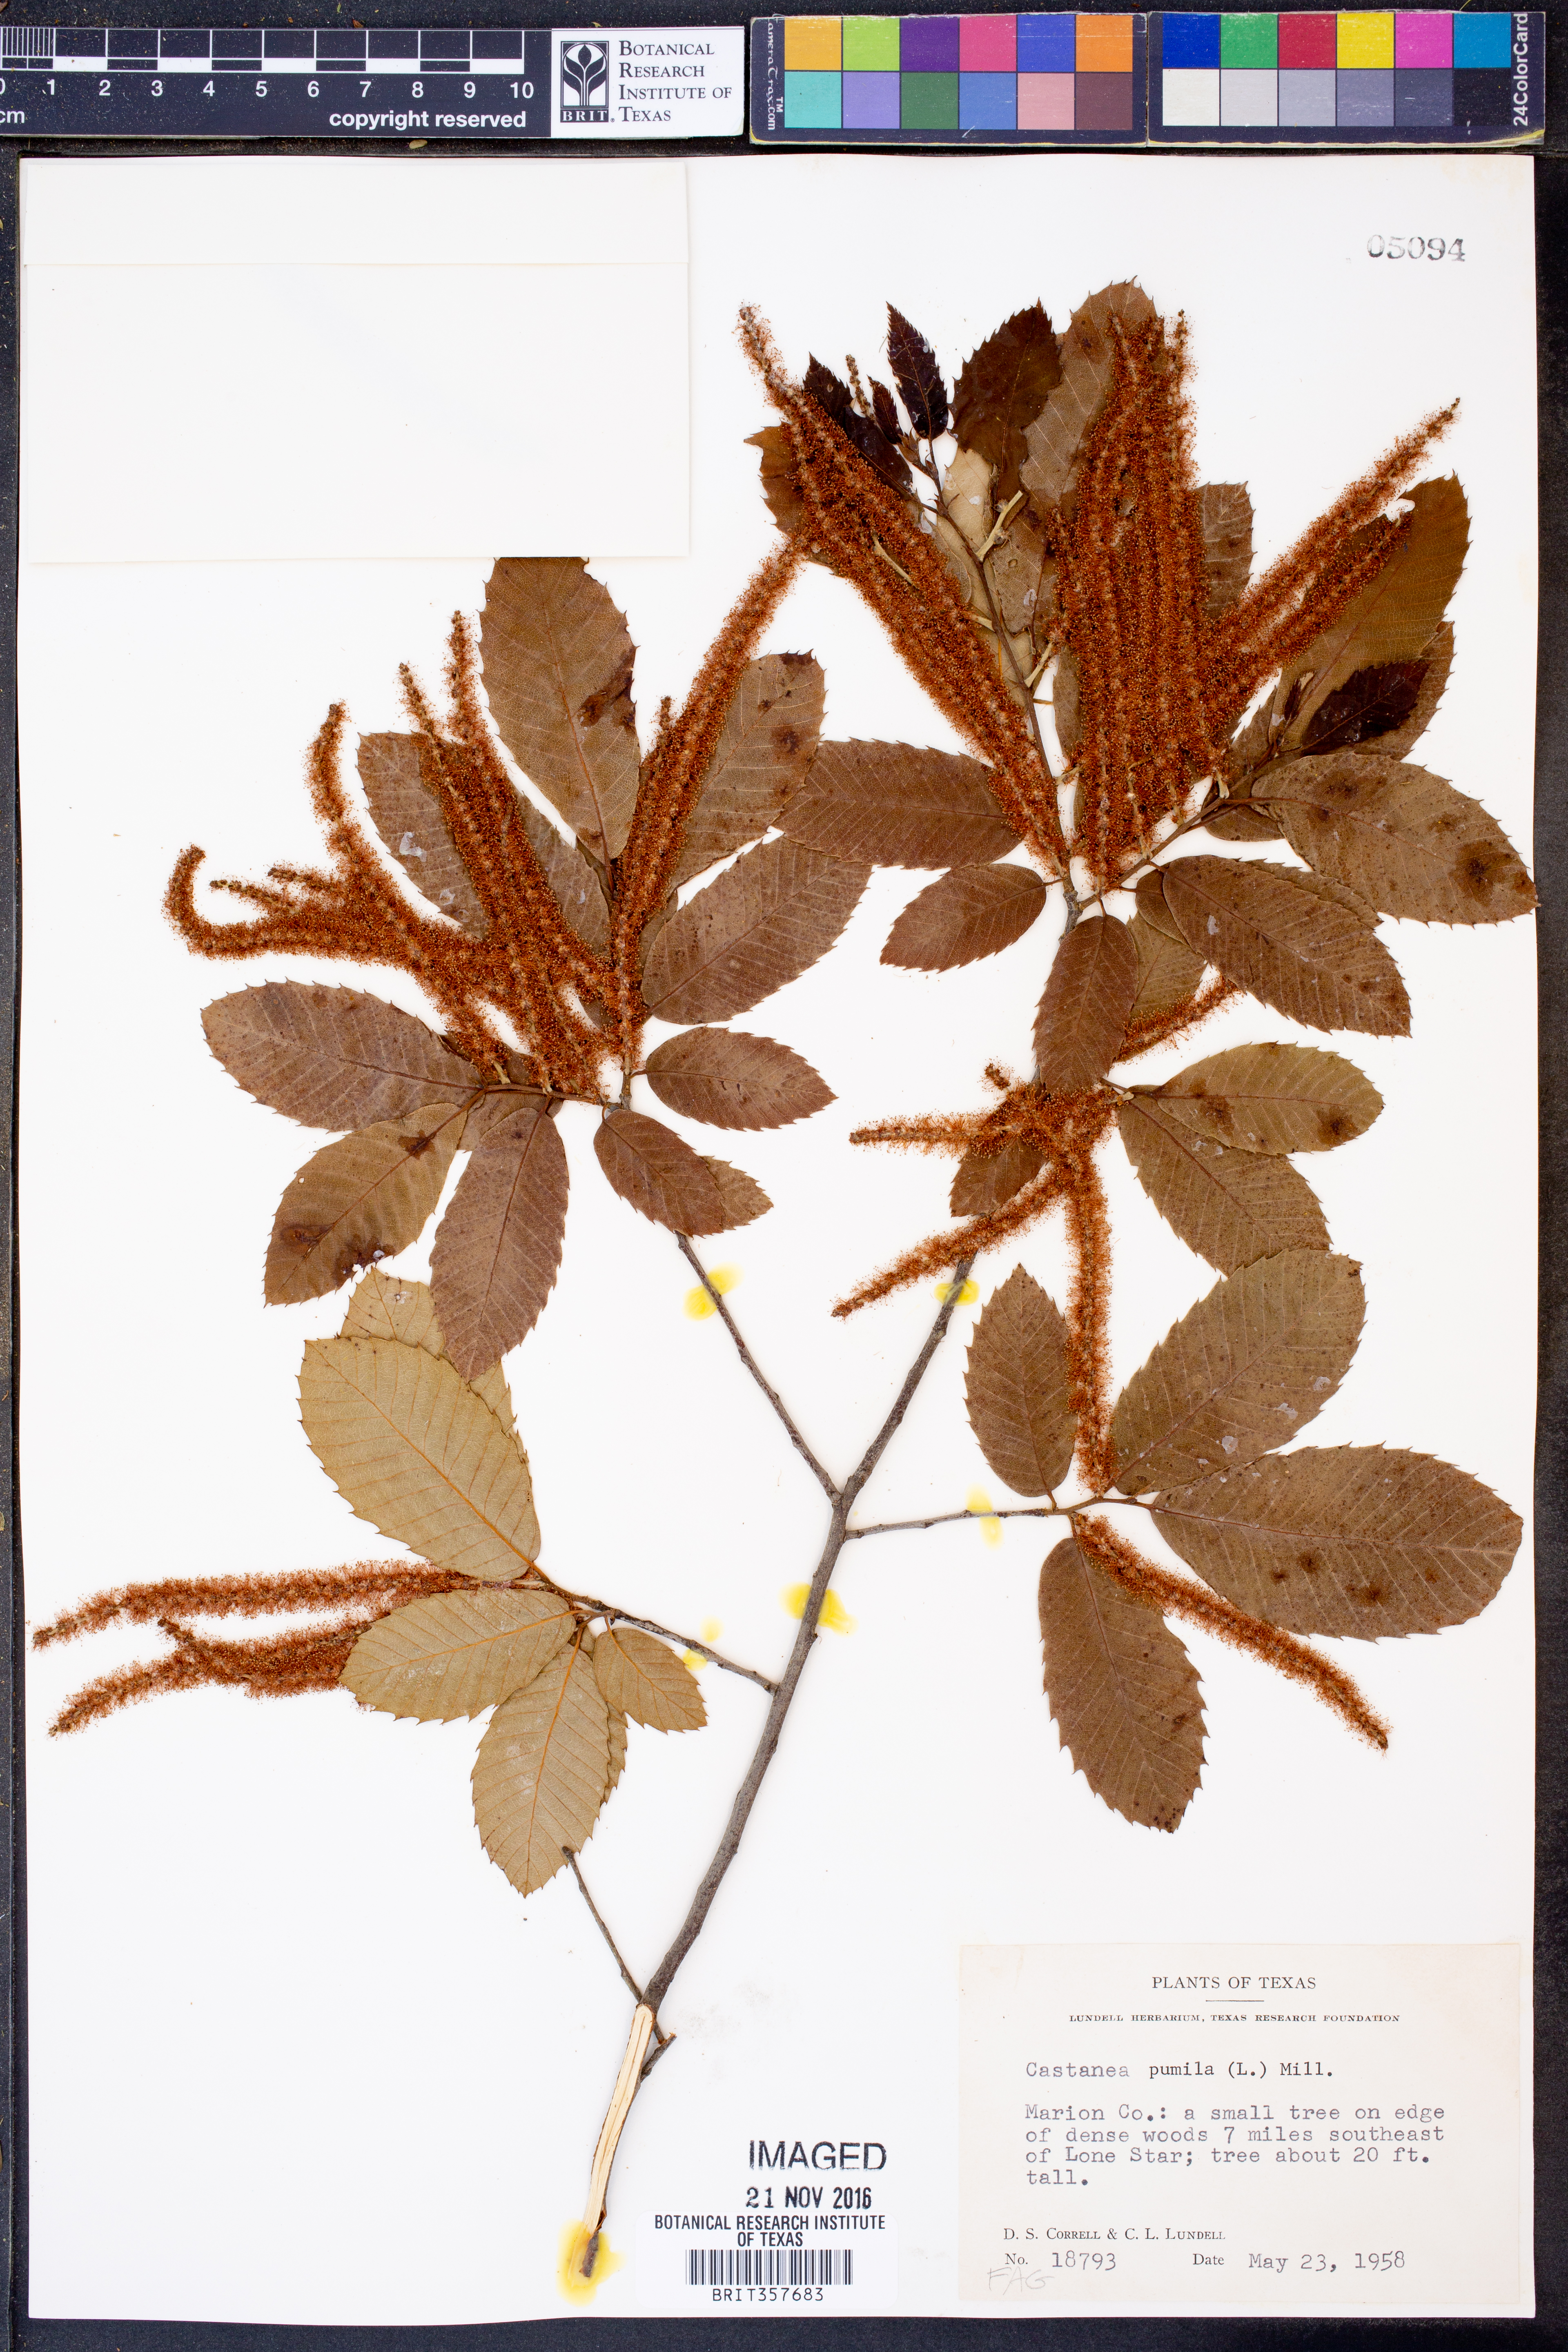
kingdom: Plantae
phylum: Tracheophyta
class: Magnoliopsida
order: Fagales
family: Fagaceae
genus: Castanea
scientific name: Castanea pumila
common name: Chinkapin
